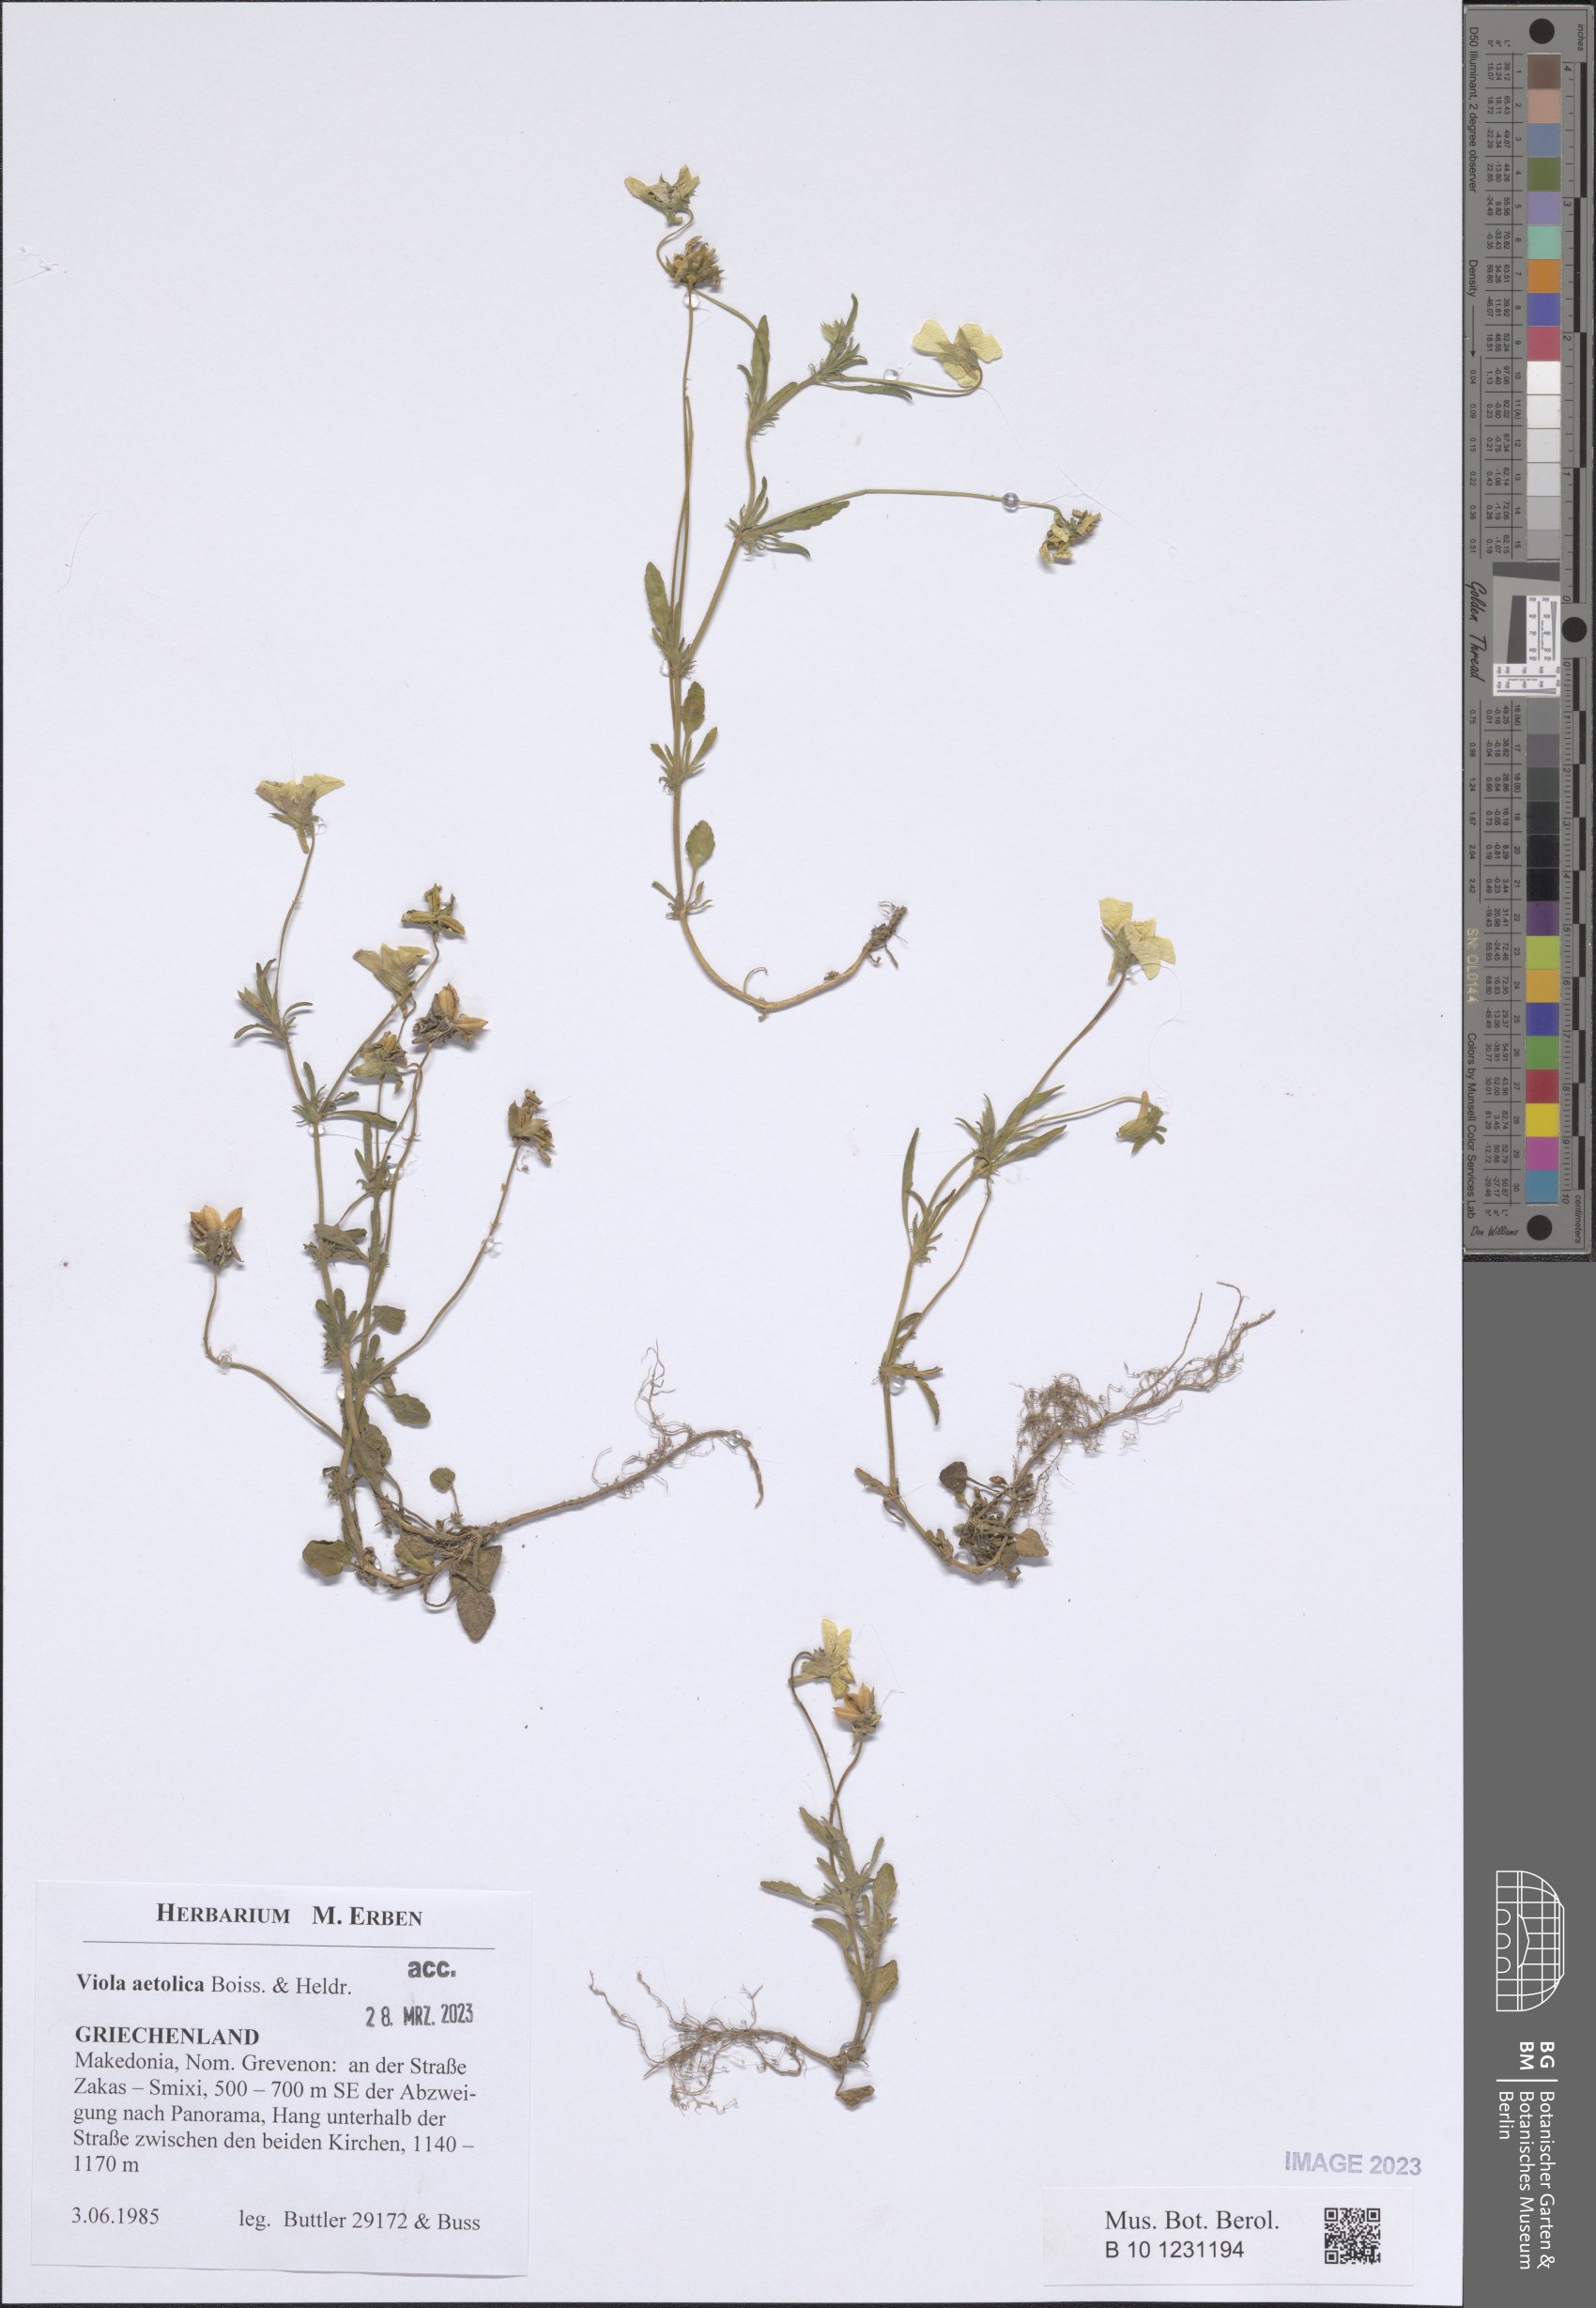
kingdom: Plantae
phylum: Tracheophyta
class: Magnoliopsida
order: Malpighiales
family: Violaceae
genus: Viola
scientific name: Viola aetolica
